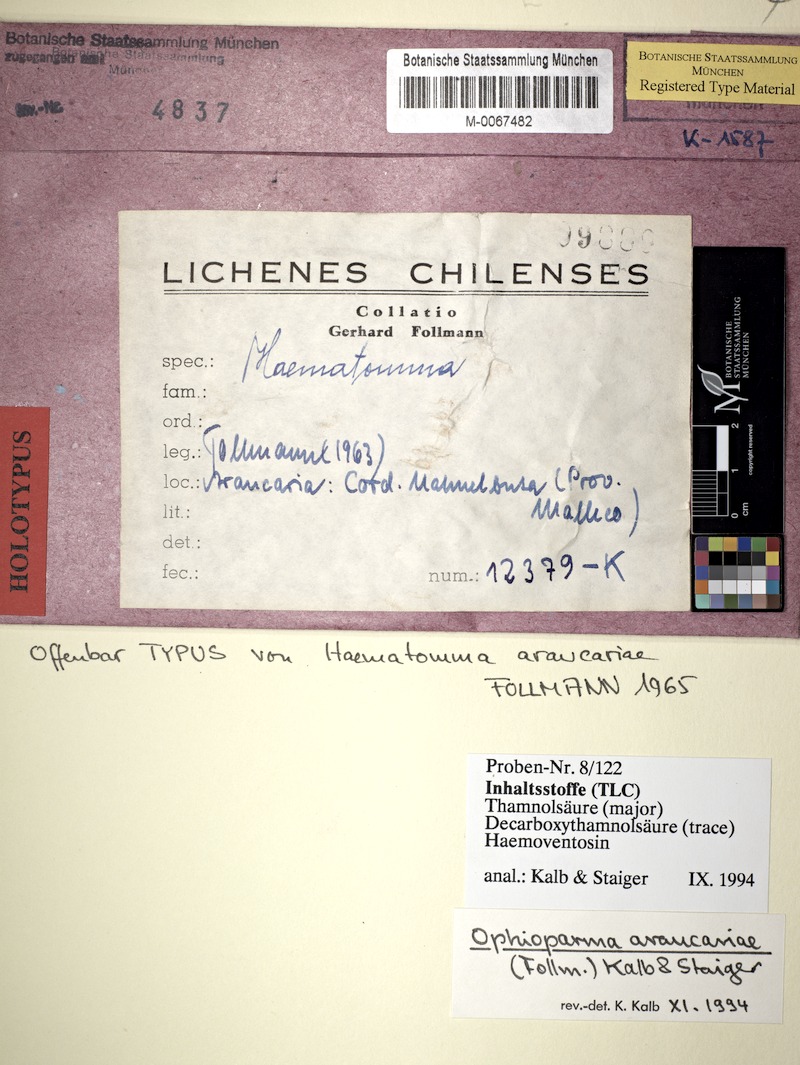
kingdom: Fungi
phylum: Ascomycota
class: Lecanoromycetes
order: Umbilicariales
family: Ophioparmaceae
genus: Ophioparma
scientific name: Ophioparma araucariae
